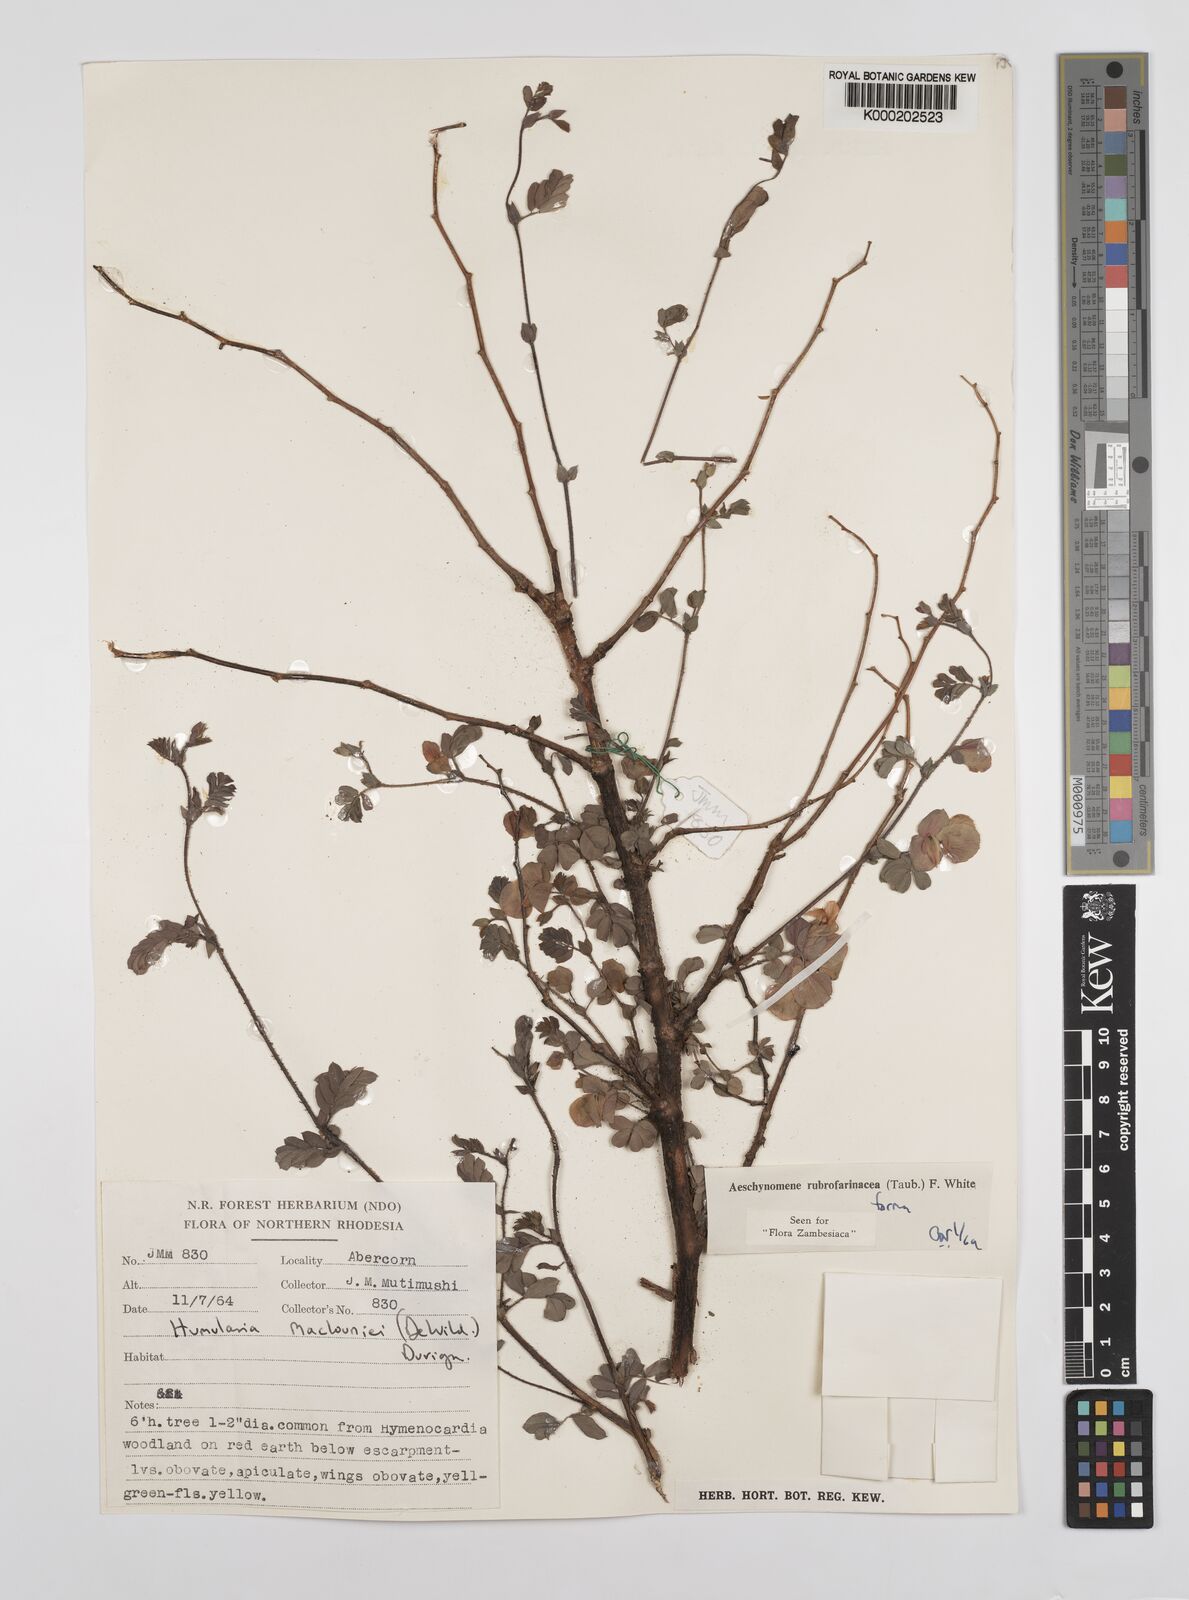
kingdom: Plantae
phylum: Tracheophyta
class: Magnoliopsida
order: Fabales
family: Fabaceae
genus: Aeschynomene
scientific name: Aeschynomene rubrofarinacea
